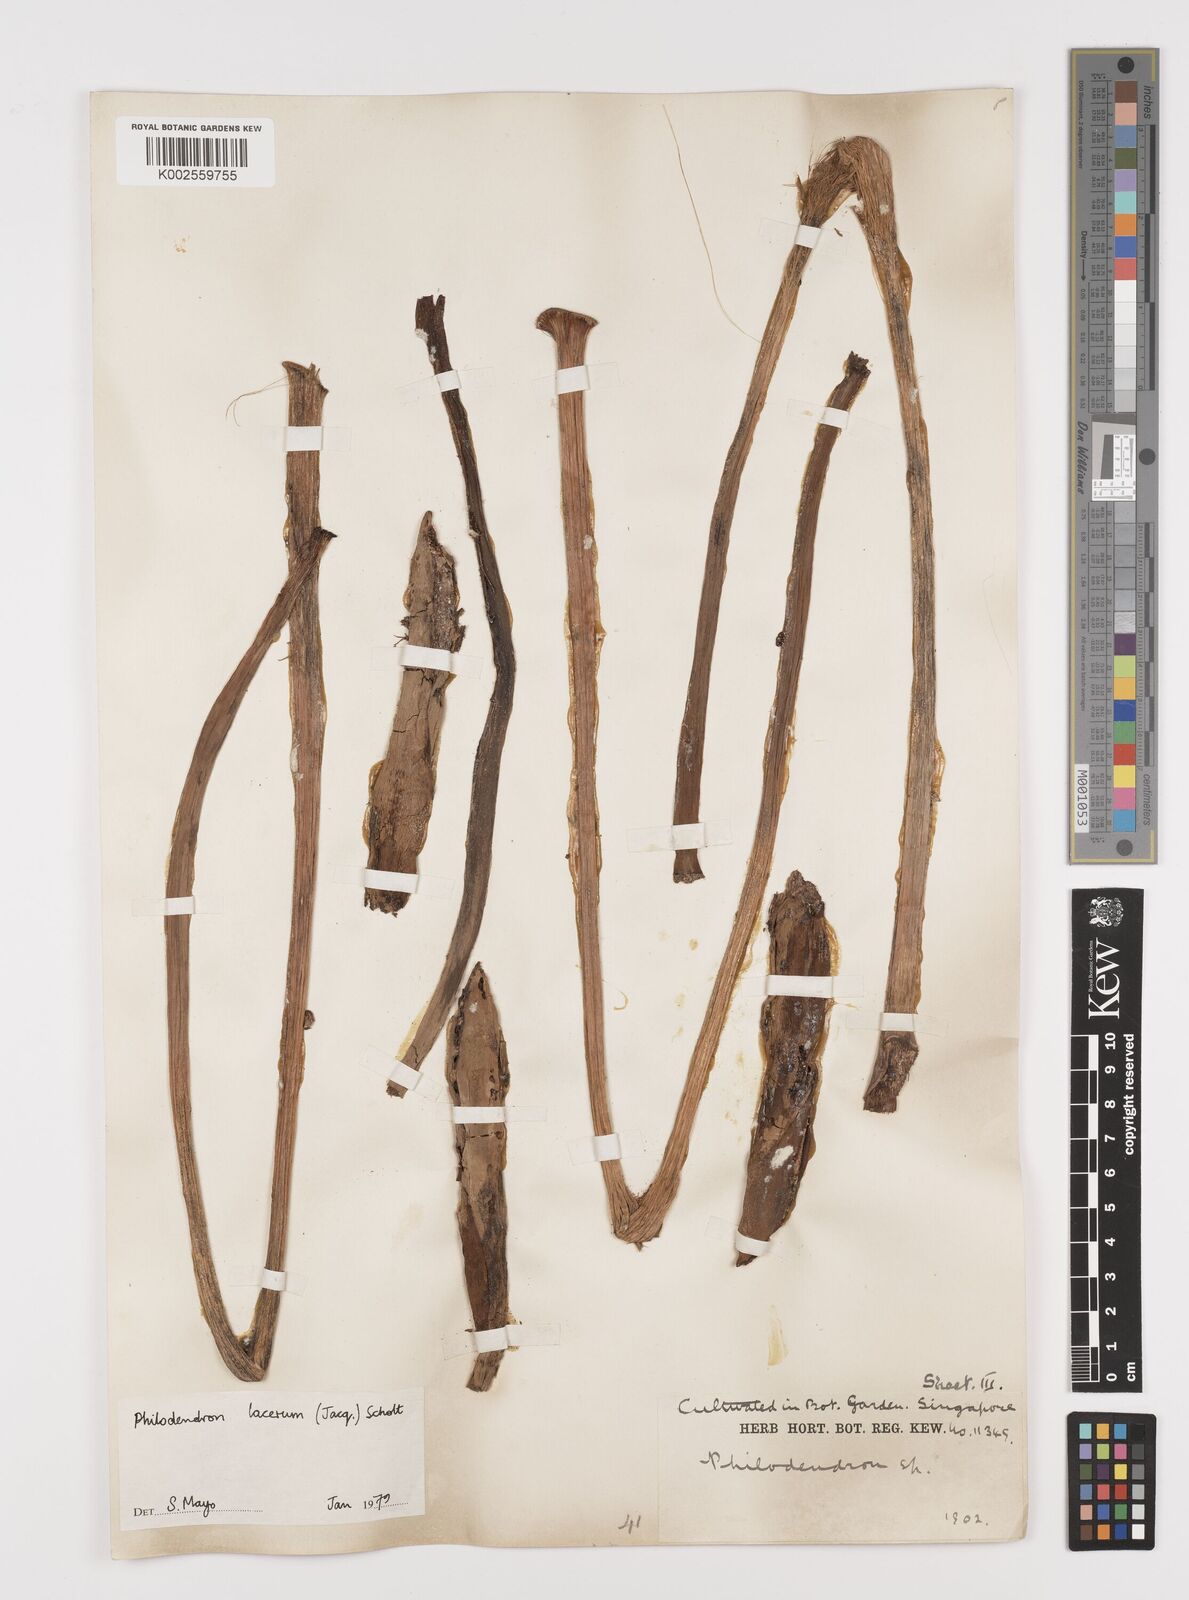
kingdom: Plantae
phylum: Tracheophyta
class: Liliopsida
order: Alismatales
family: Araceae
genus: Philodendron
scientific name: Philodendron lacerum
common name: Philodendron
